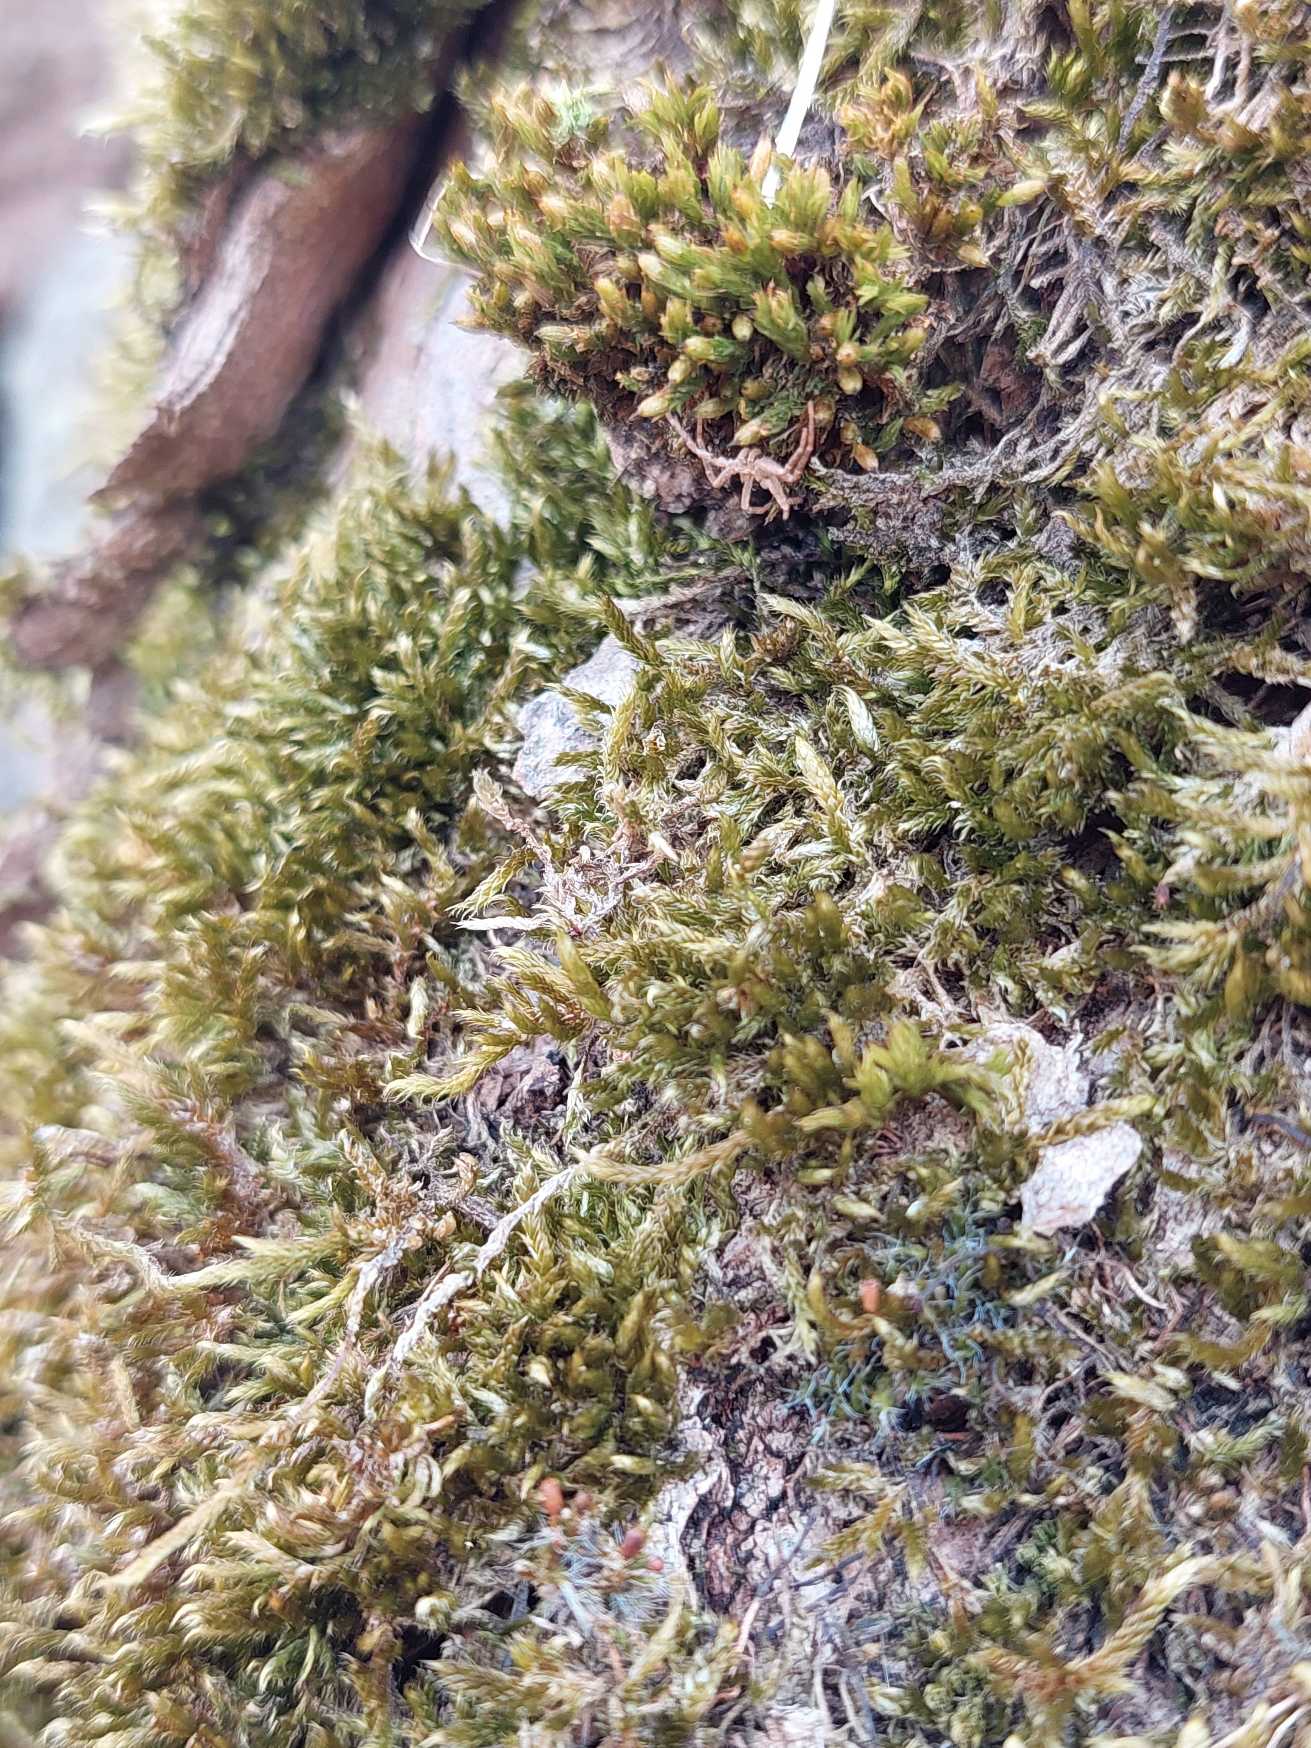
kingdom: Plantae
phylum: Bryophyta
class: Bryopsida
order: Hypnales
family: Hypnaceae
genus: Hypnum
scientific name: Hypnum cupressiforme
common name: Almindelig cypresmos
